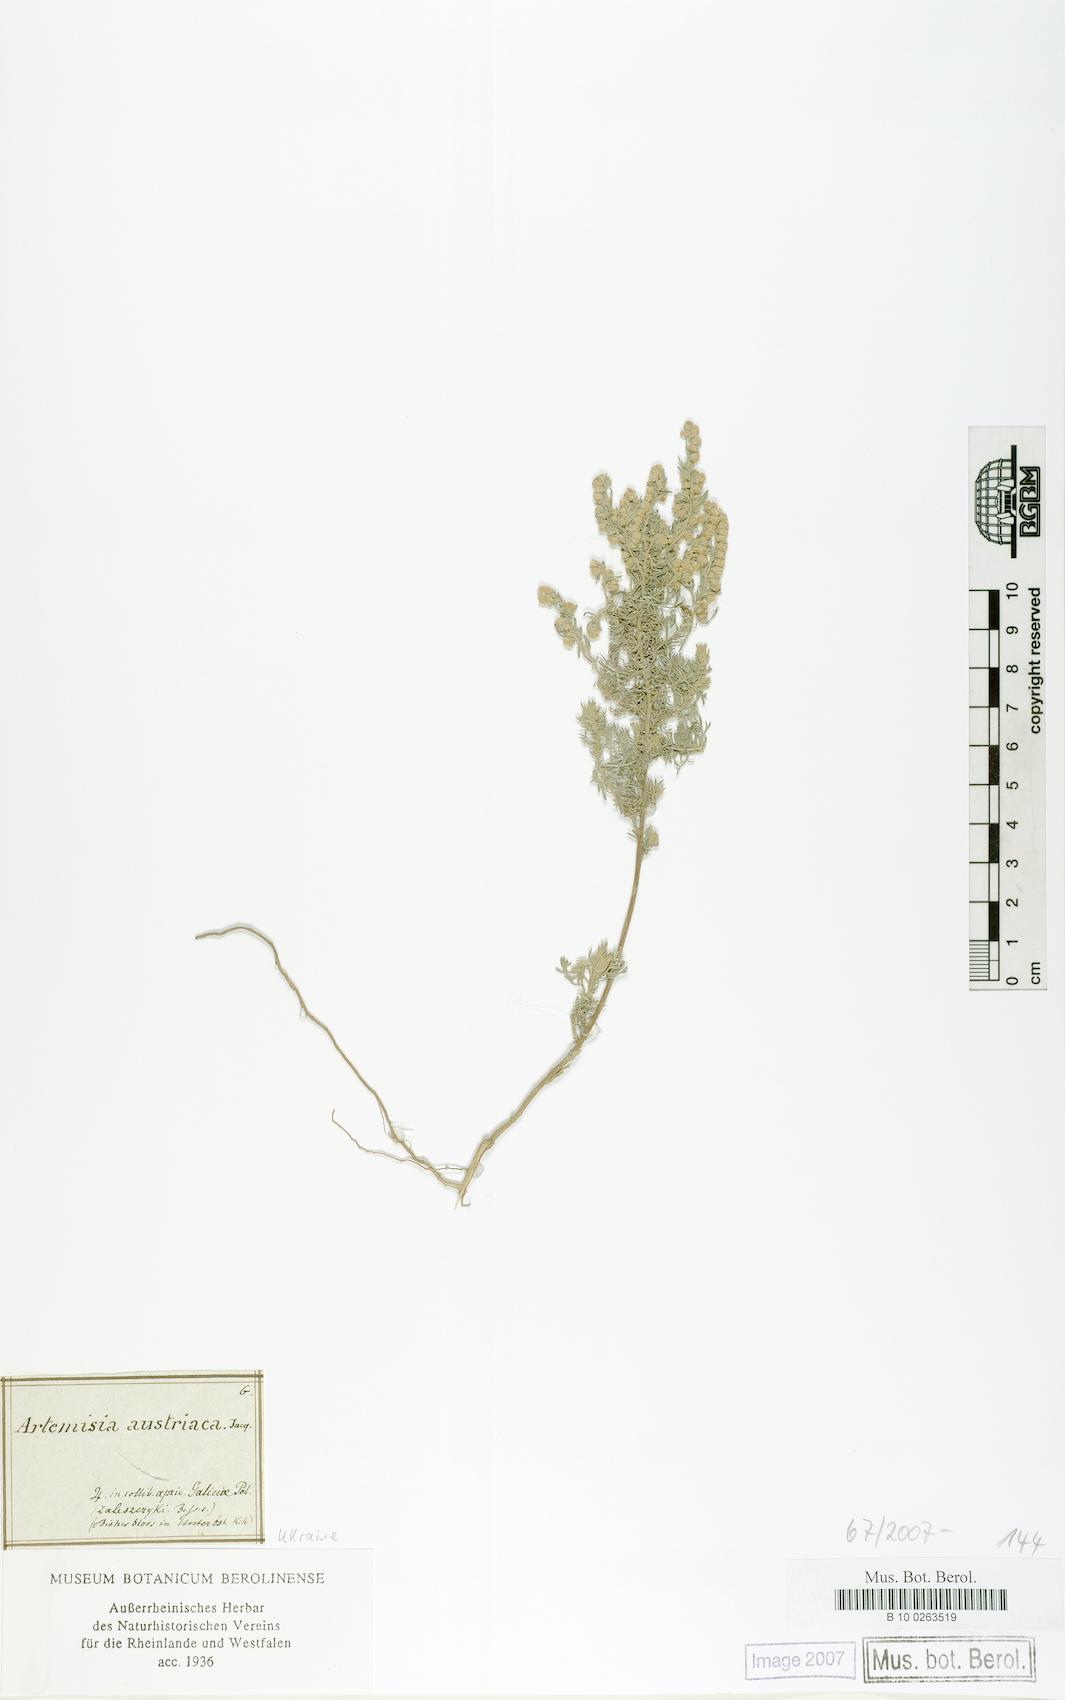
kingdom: Plantae
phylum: Tracheophyta
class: Magnoliopsida
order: Asterales
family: Asteraceae
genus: Artemisia
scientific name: Artemisia austriaca
